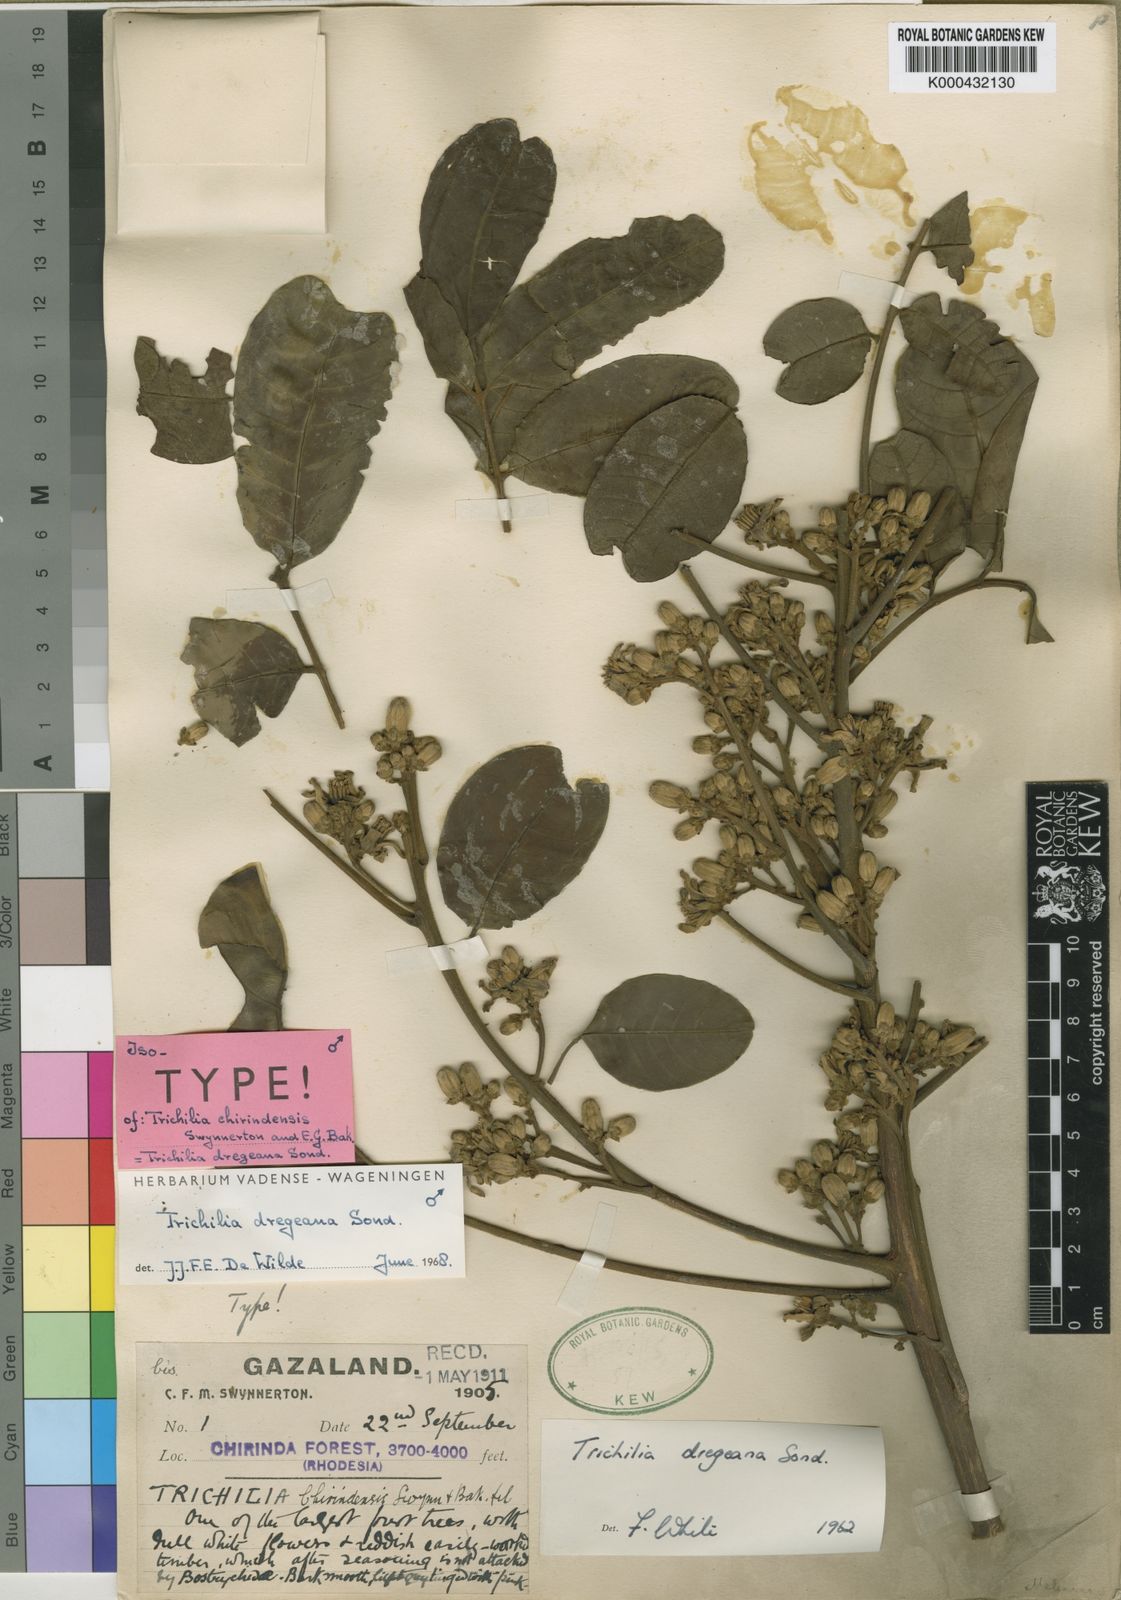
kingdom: Plantae
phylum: Tracheophyta
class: Magnoliopsida
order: Sapindales
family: Meliaceae
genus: Trichilia
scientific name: Trichilia dregeana
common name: Christmas-bells
